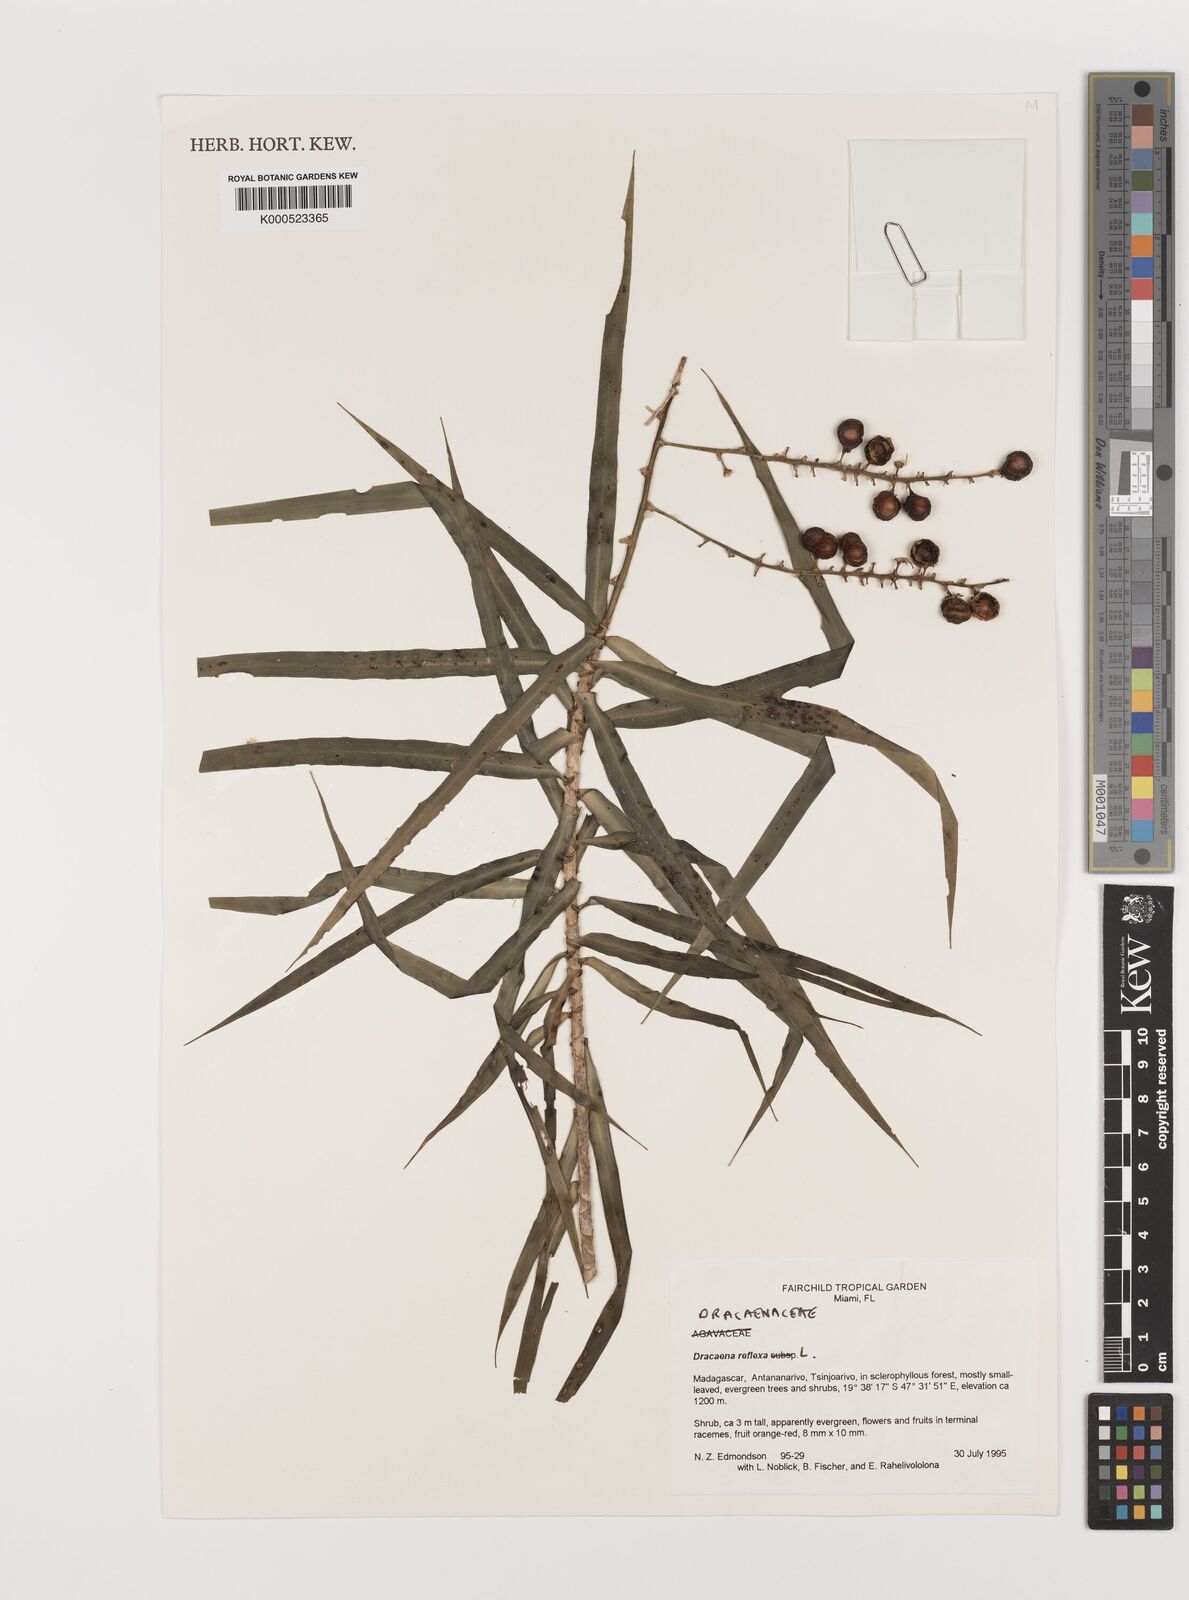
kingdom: Plantae
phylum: Tracheophyta
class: Liliopsida
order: Asparagales
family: Asparagaceae
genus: Dracaena
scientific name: Dracaena reflexa
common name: Song-of-india
